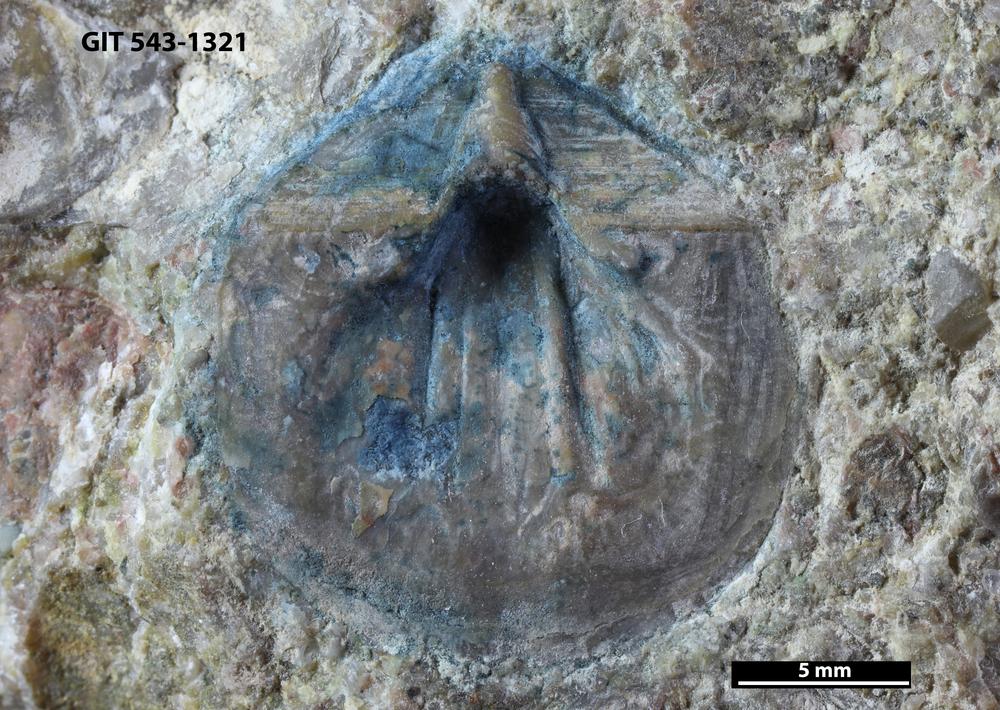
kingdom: Animalia
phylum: Brachiopoda
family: Billingsellidae
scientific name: Billingsellidae
